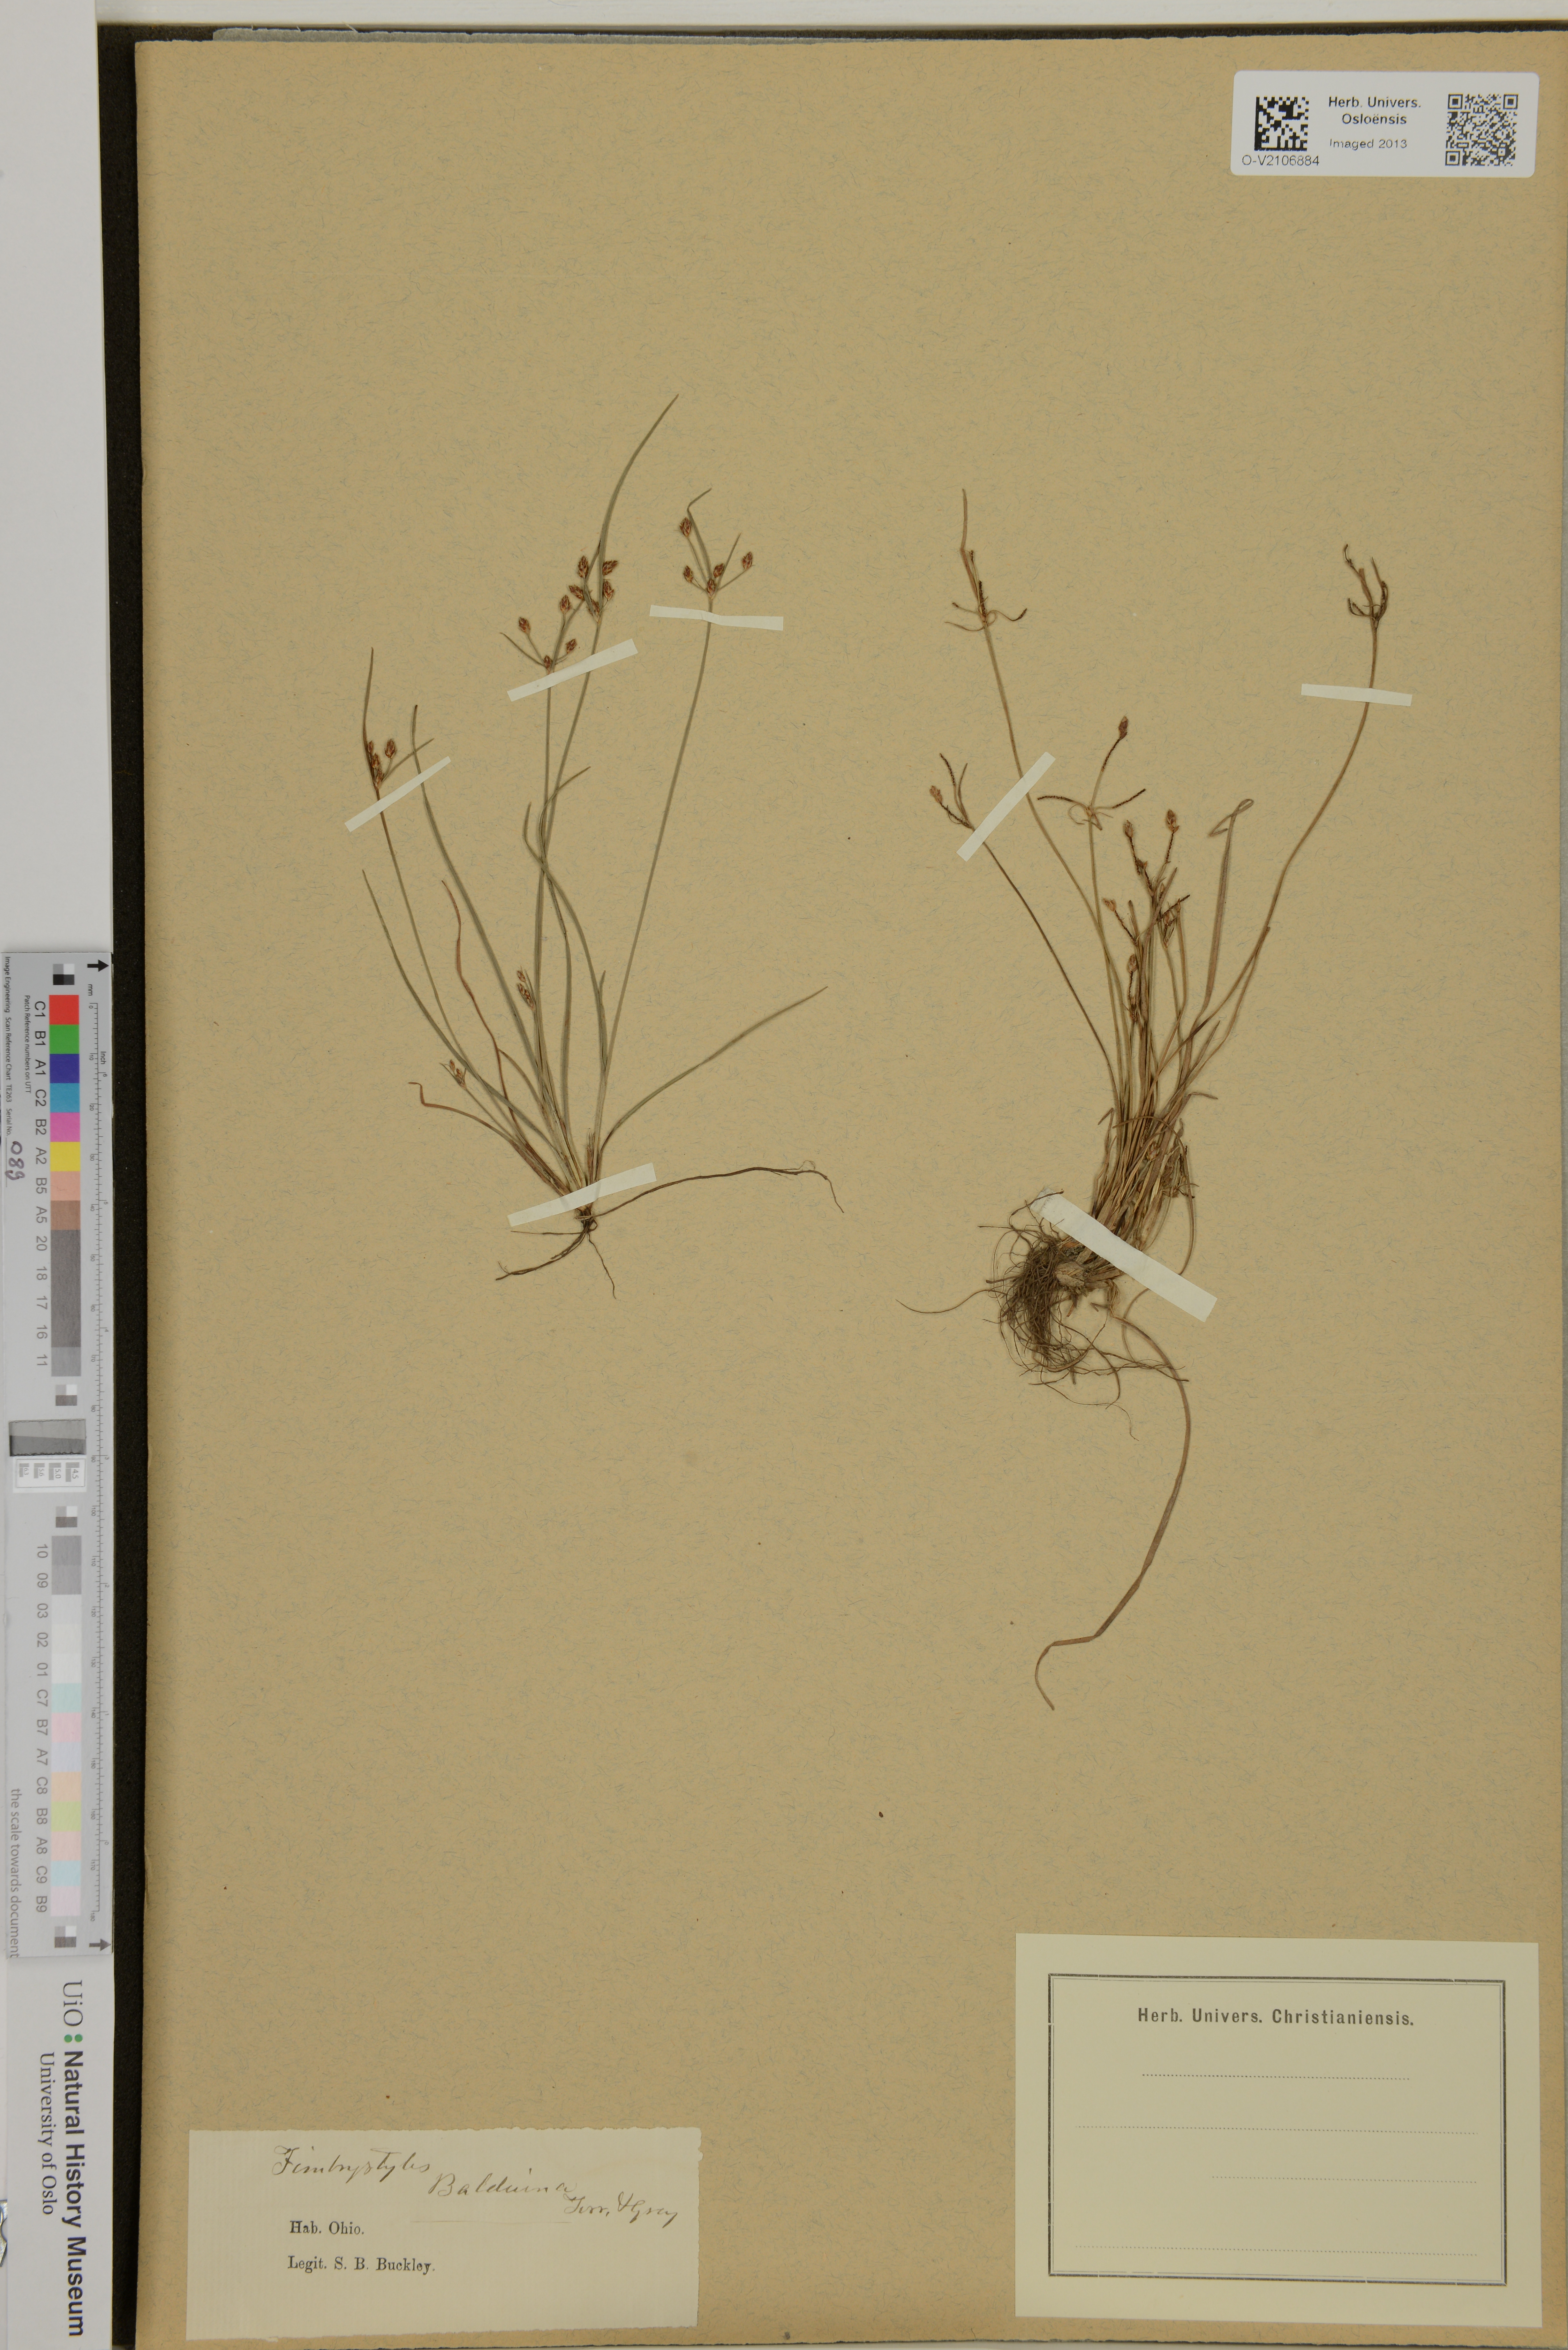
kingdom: Plantae
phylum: Tracheophyta
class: Liliopsida
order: Poales
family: Cyperaceae
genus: Fimbristylis
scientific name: Fimbristylis
